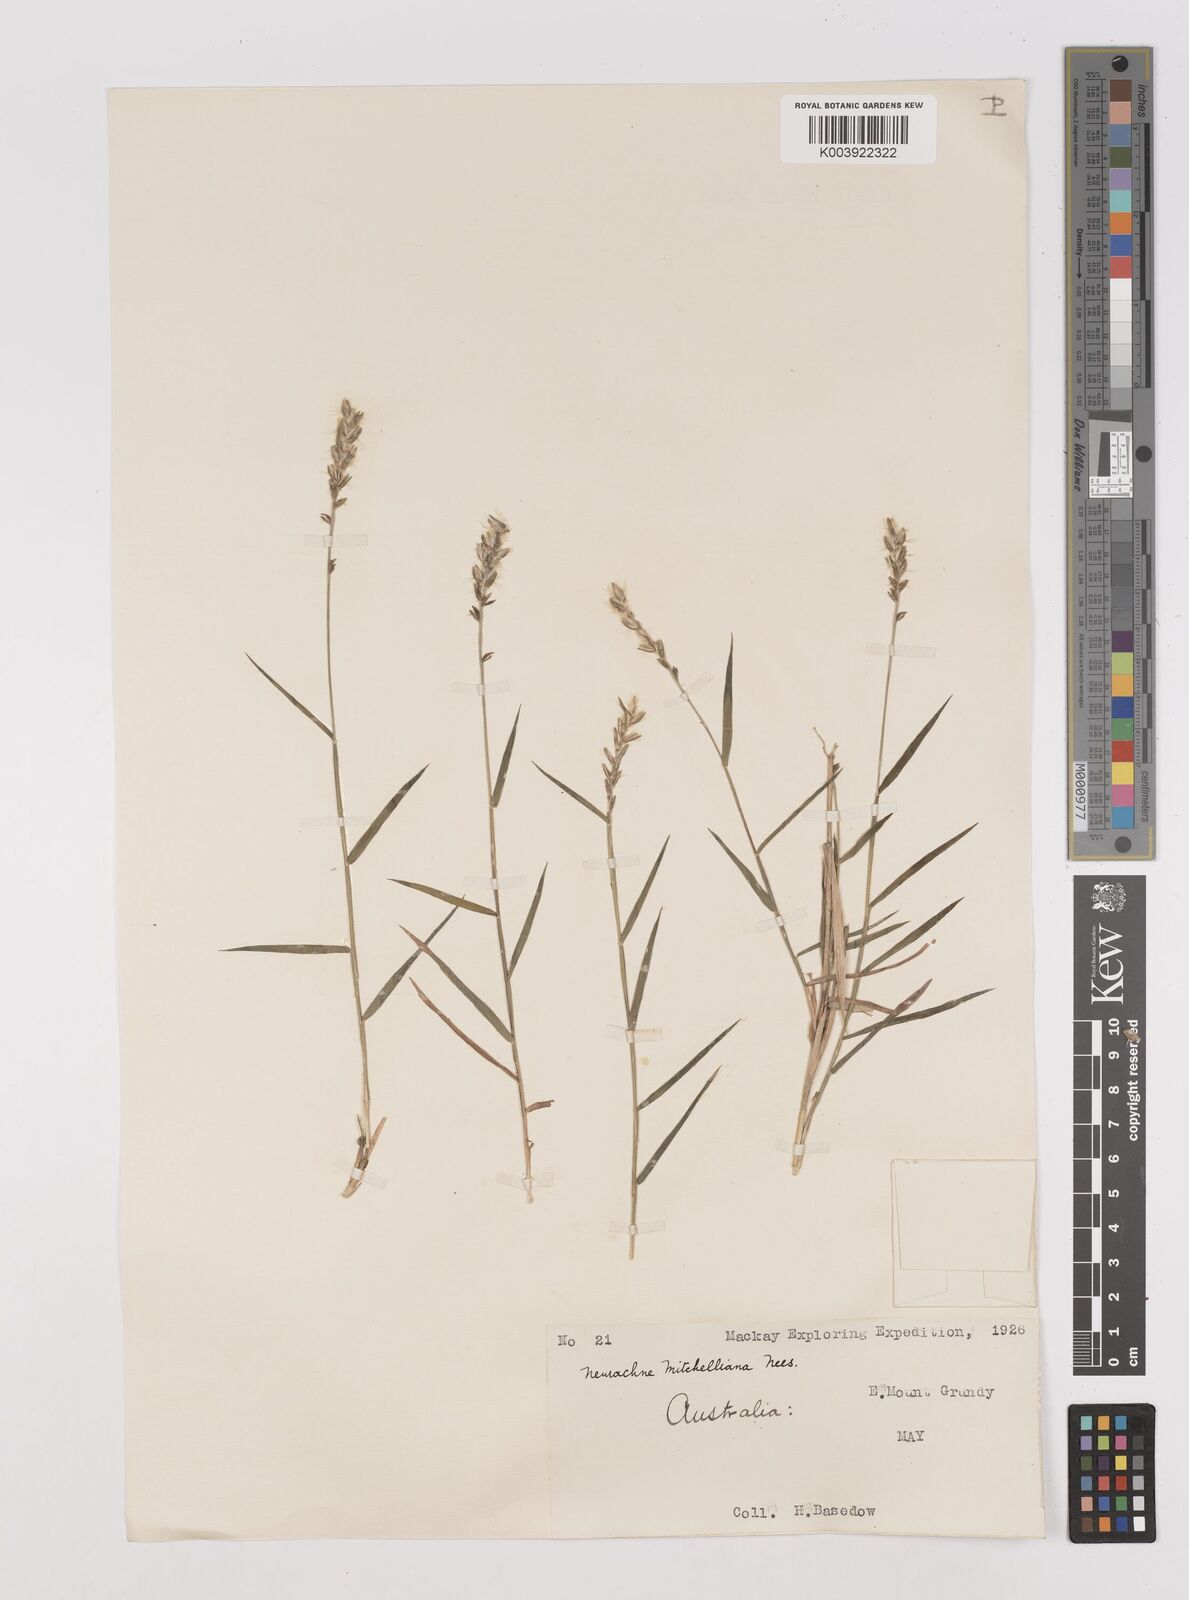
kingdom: Plantae
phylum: Tracheophyta
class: Liliopsida
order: Poales
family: Poaceae
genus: Thyridolepis
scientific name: Thyridolepis mitchelliana
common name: Rock tassel grass
